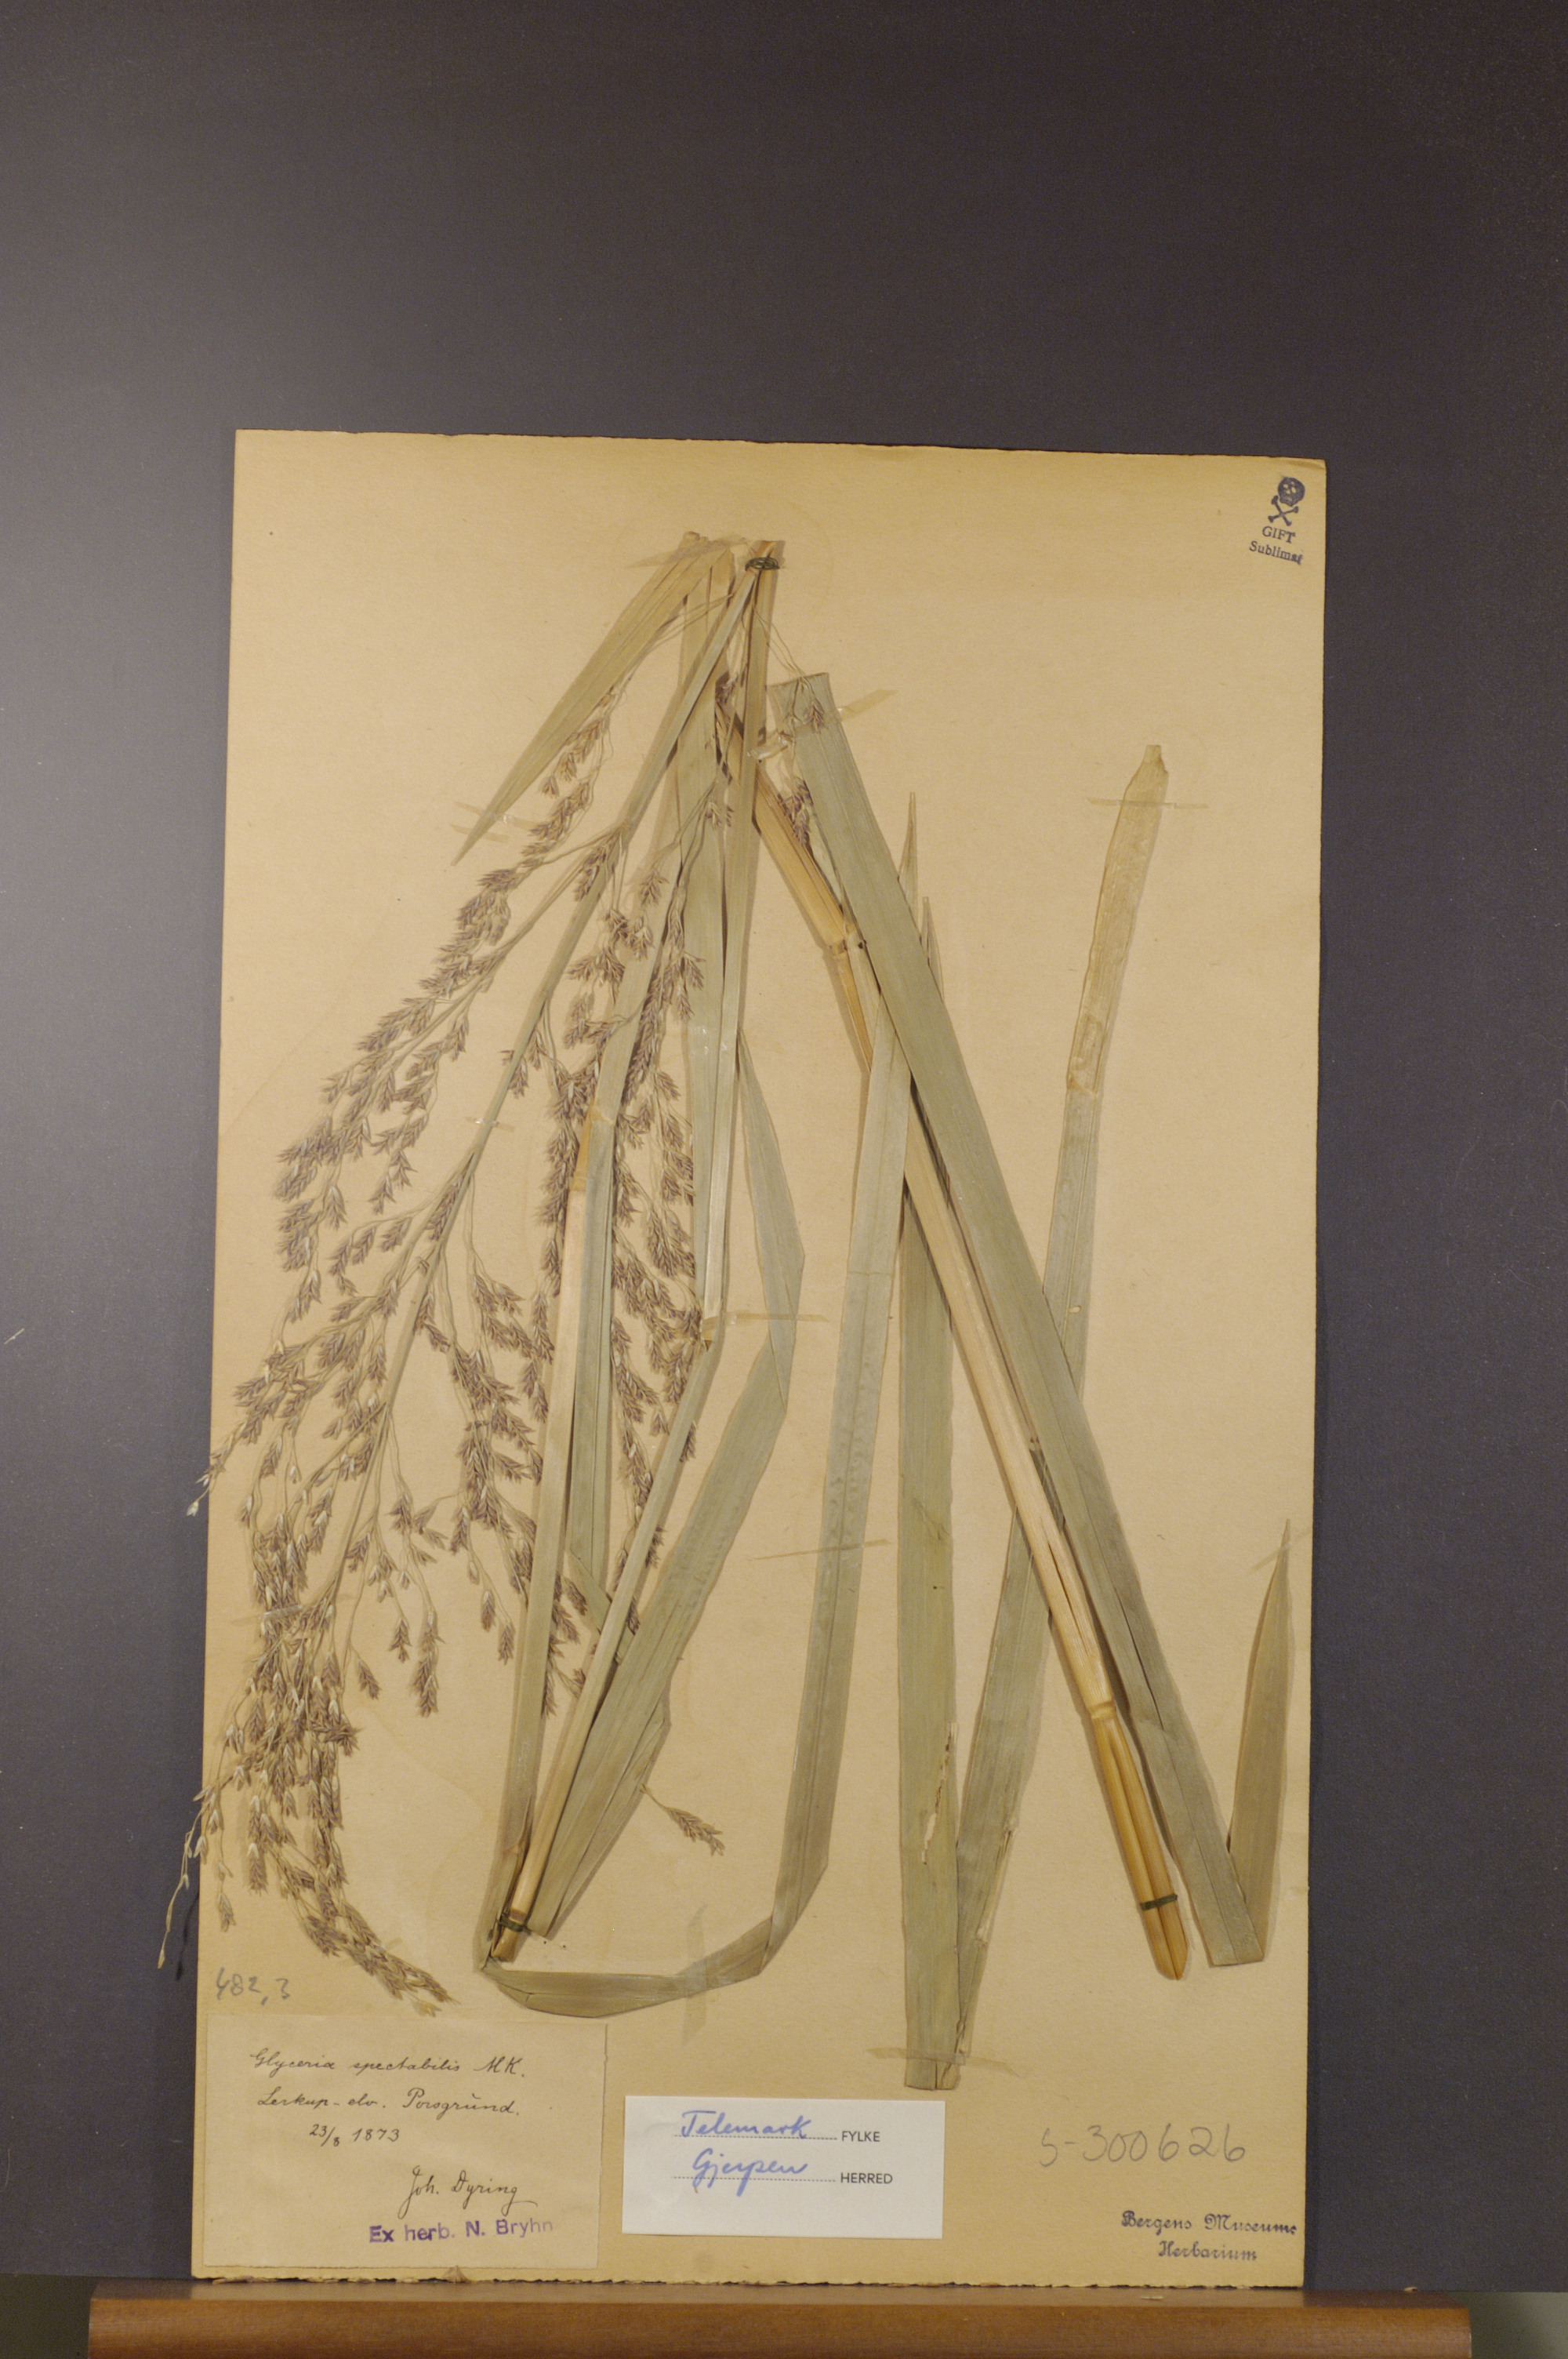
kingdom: Plantae
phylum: Tracheophyta
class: Liliopsida
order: Poales
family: Poaceae
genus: Glyceria
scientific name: Glyceria maxima
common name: Reed mannagrass
